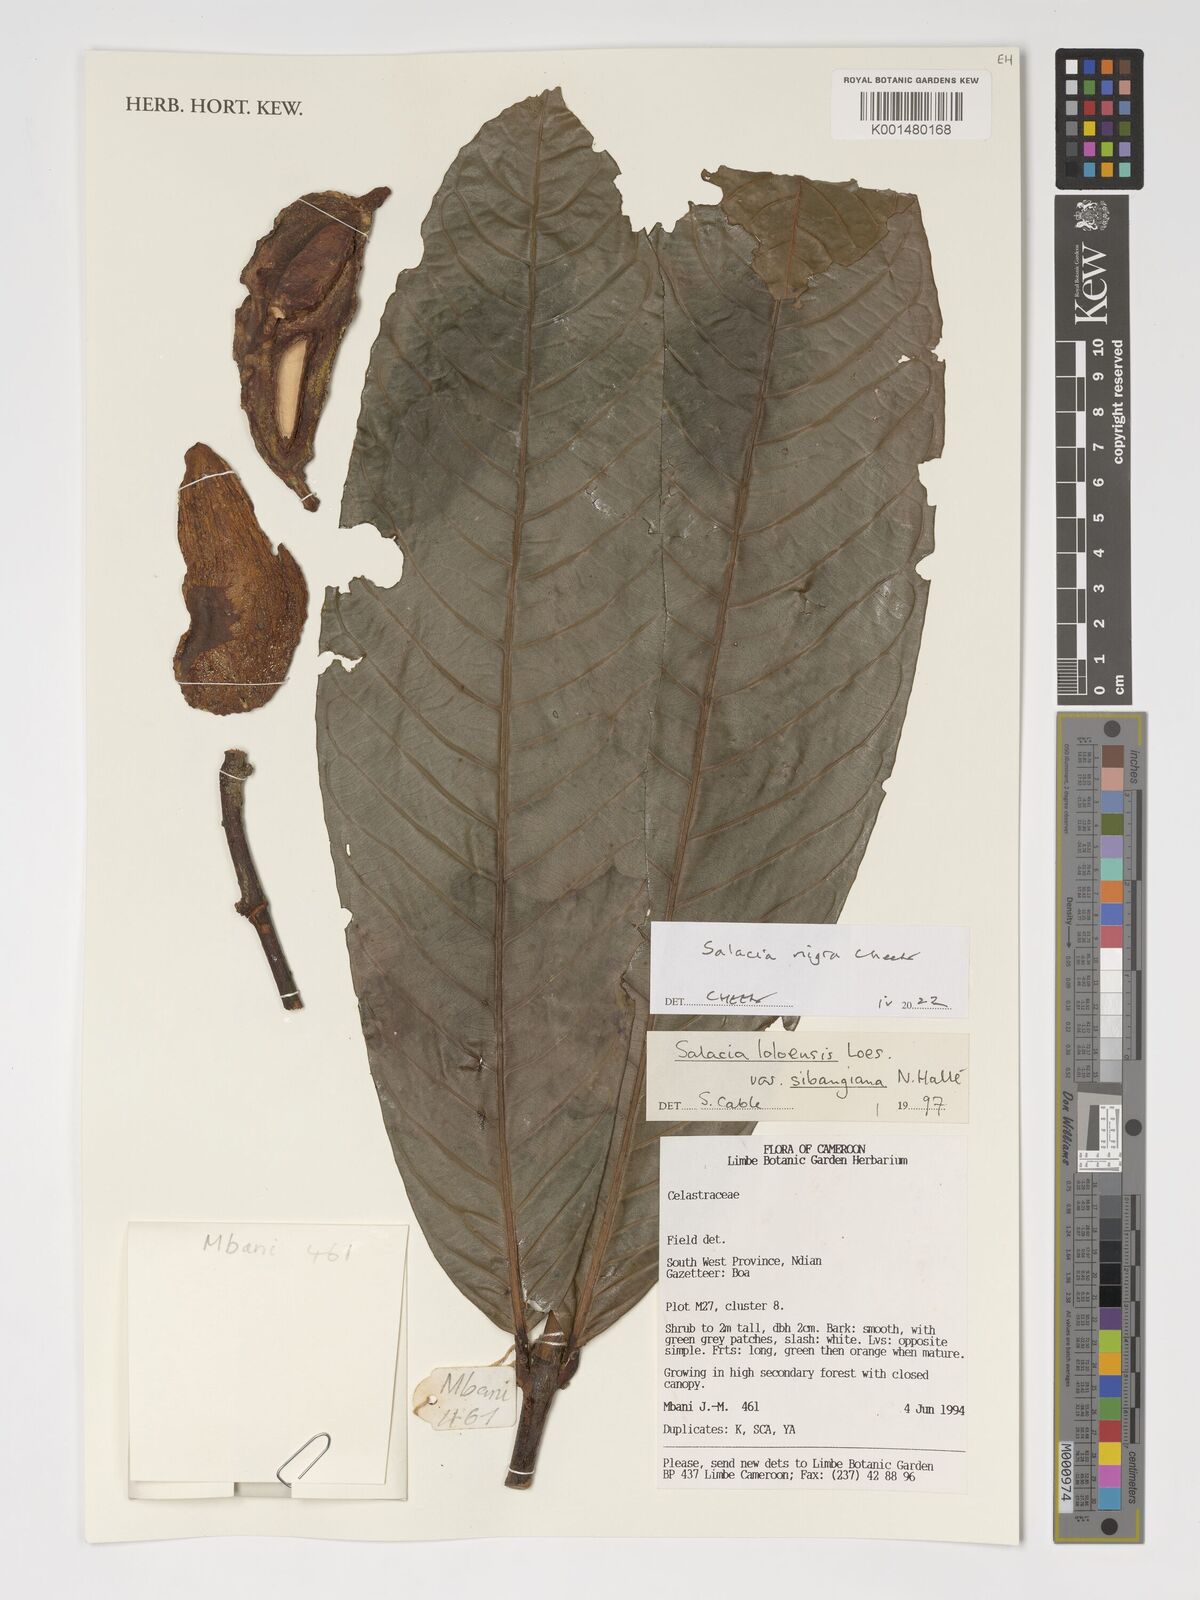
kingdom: Plantae
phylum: Tracheophyta
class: Magnoliopsida
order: Celastrales
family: Celastraceae
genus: Salacia
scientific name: Salacia nigra
